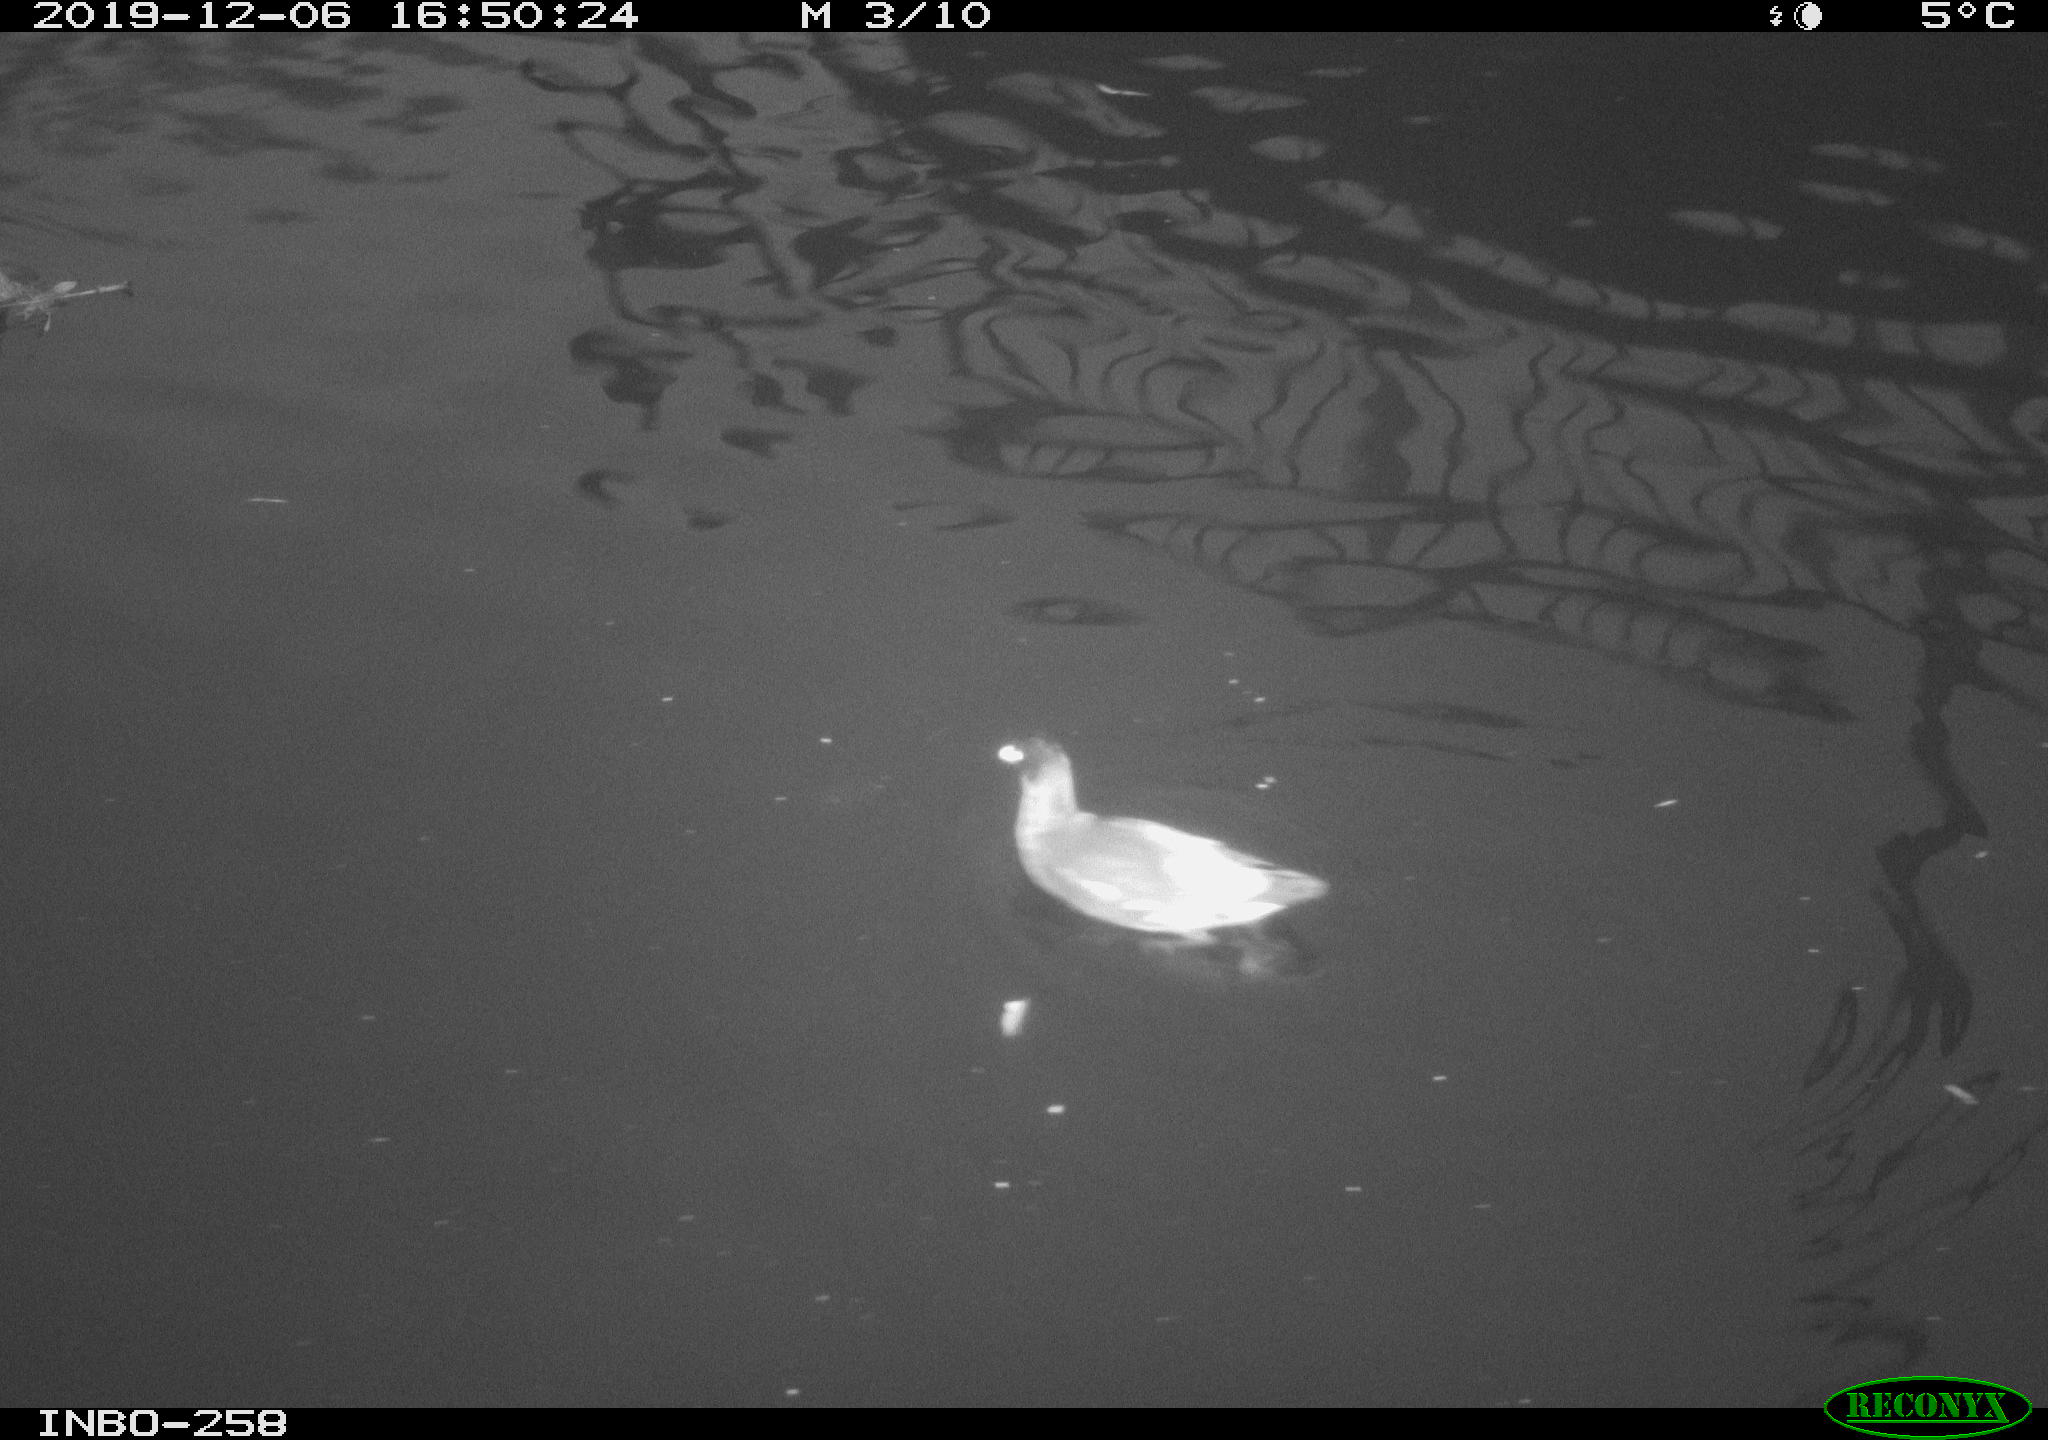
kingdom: Animalia
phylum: Chordata
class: Aves
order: Gruiformes
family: Rallidae
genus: Gallinula
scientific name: Gallinula chloropus
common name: Common moorhen
